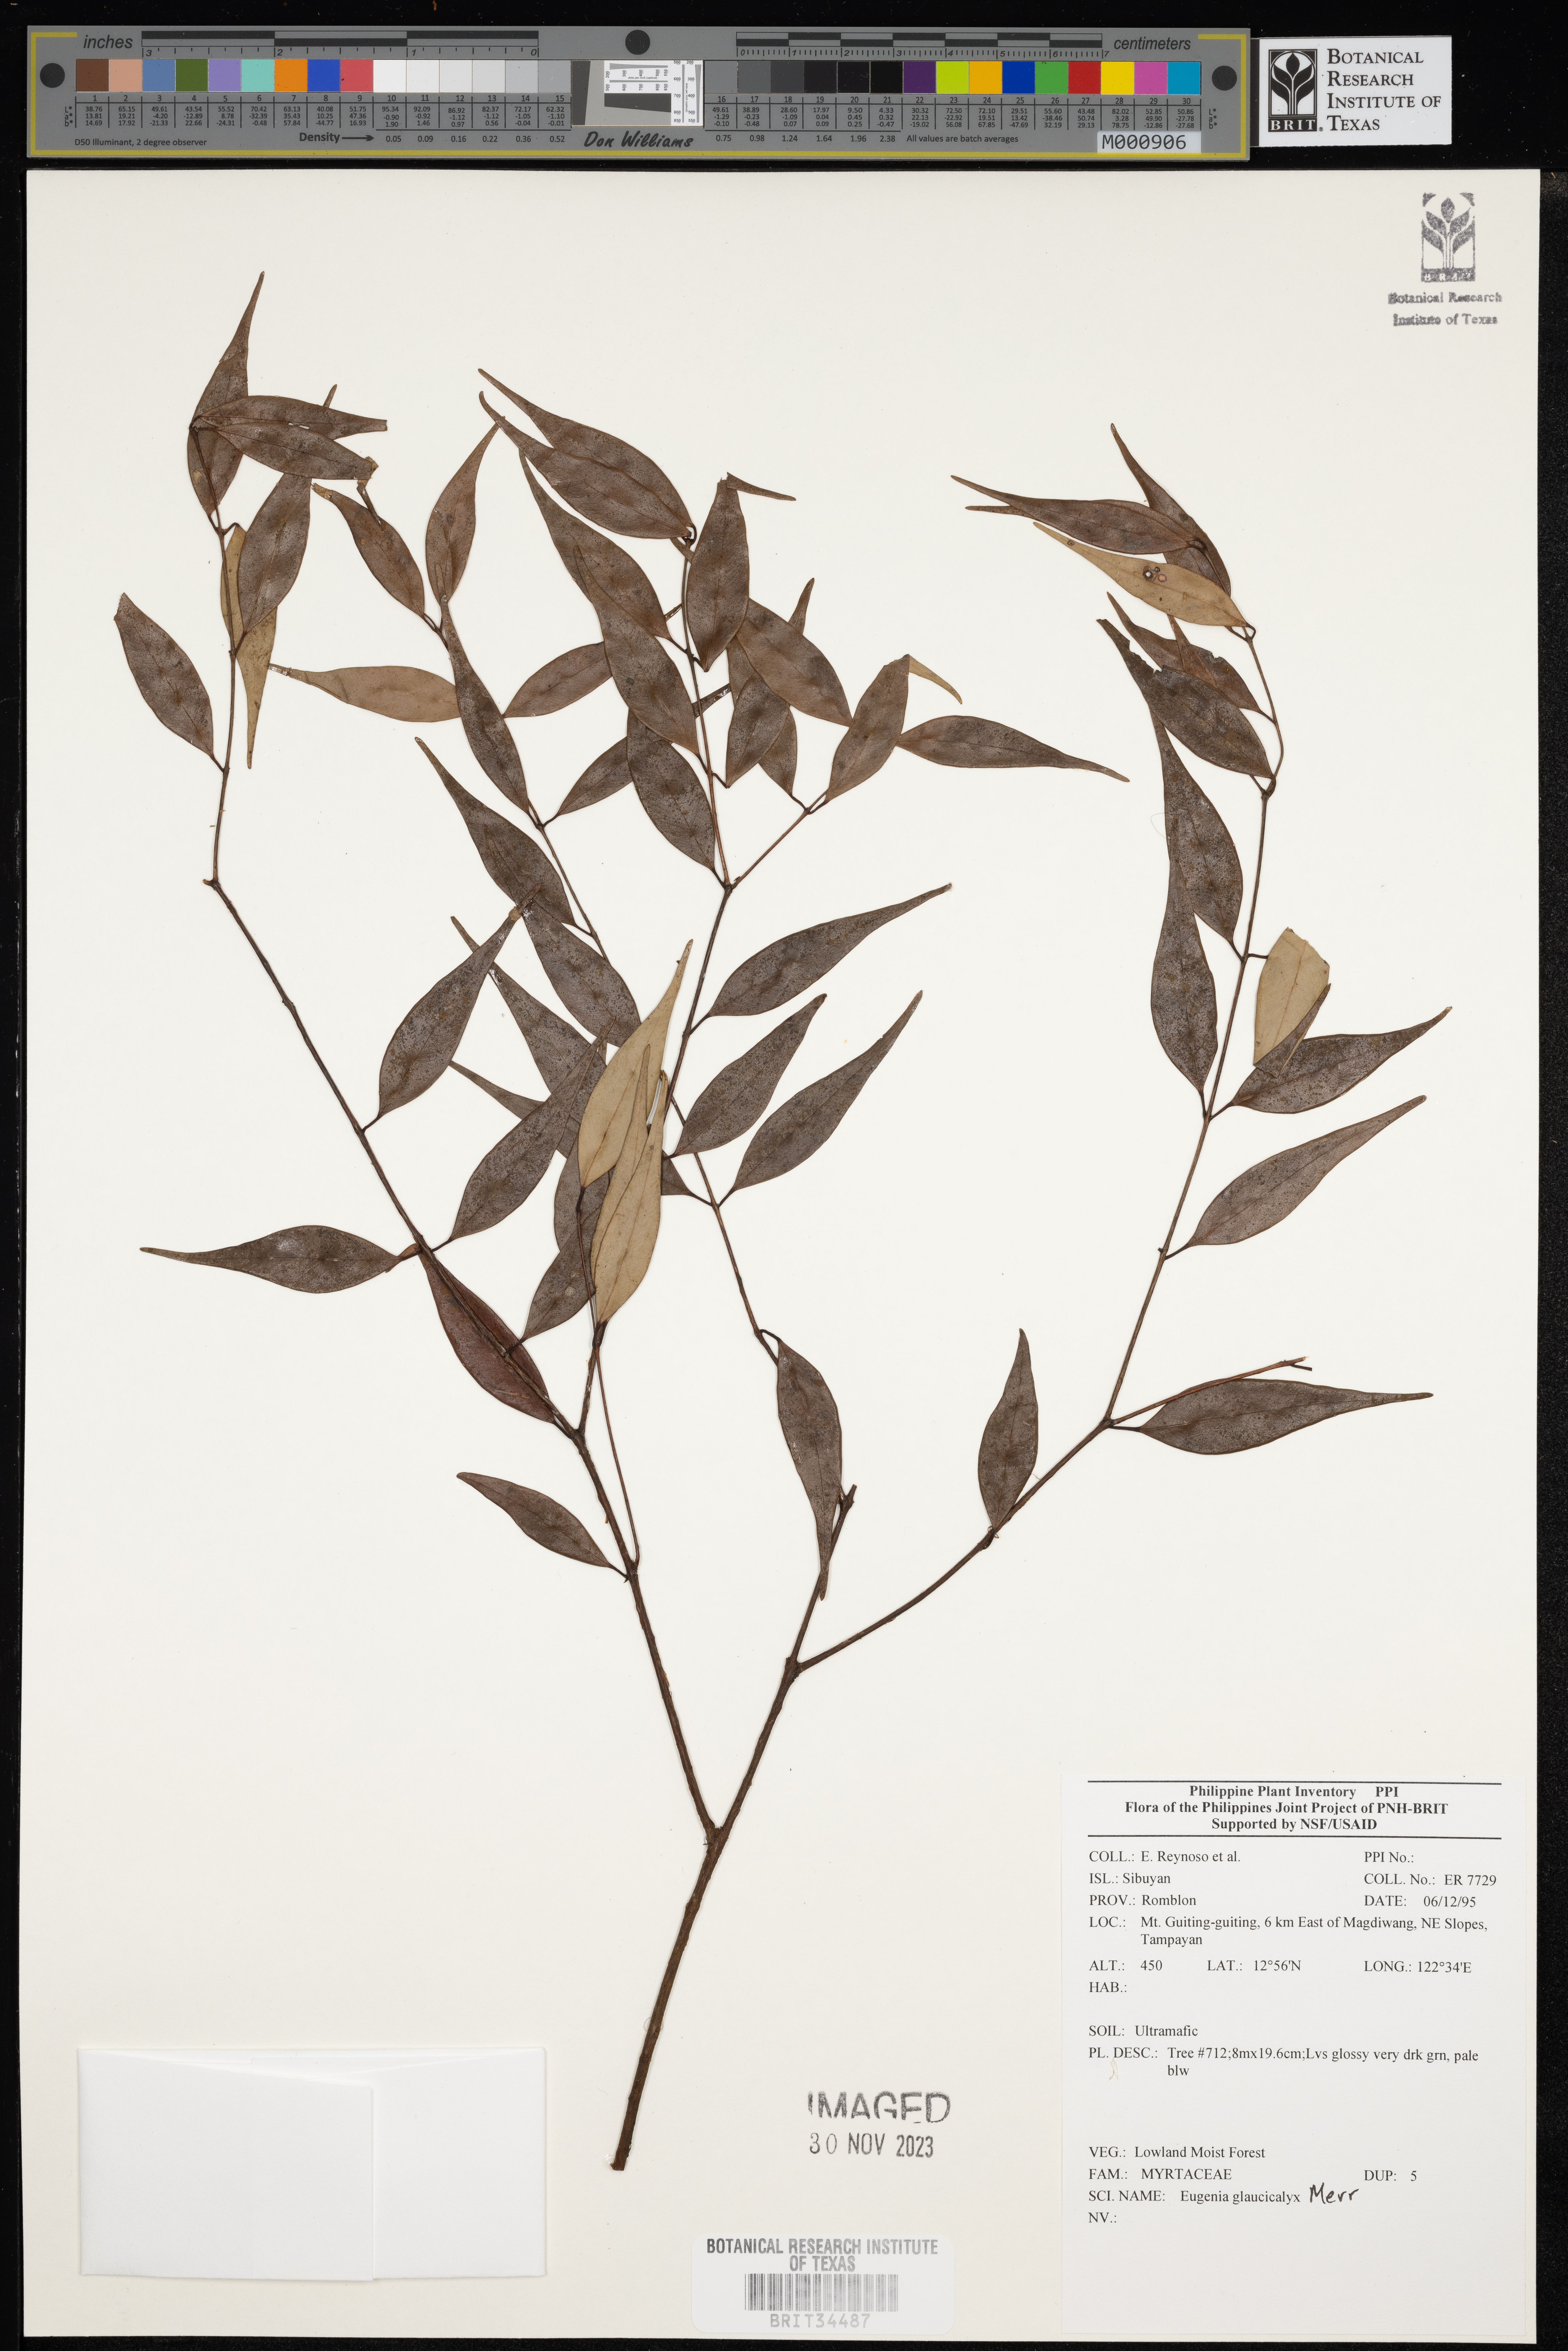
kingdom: Plantae
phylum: Tracheophyta
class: Magnoliopsida
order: Myrtales
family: Myrtaceae
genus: Eugenia
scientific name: Eugenia
